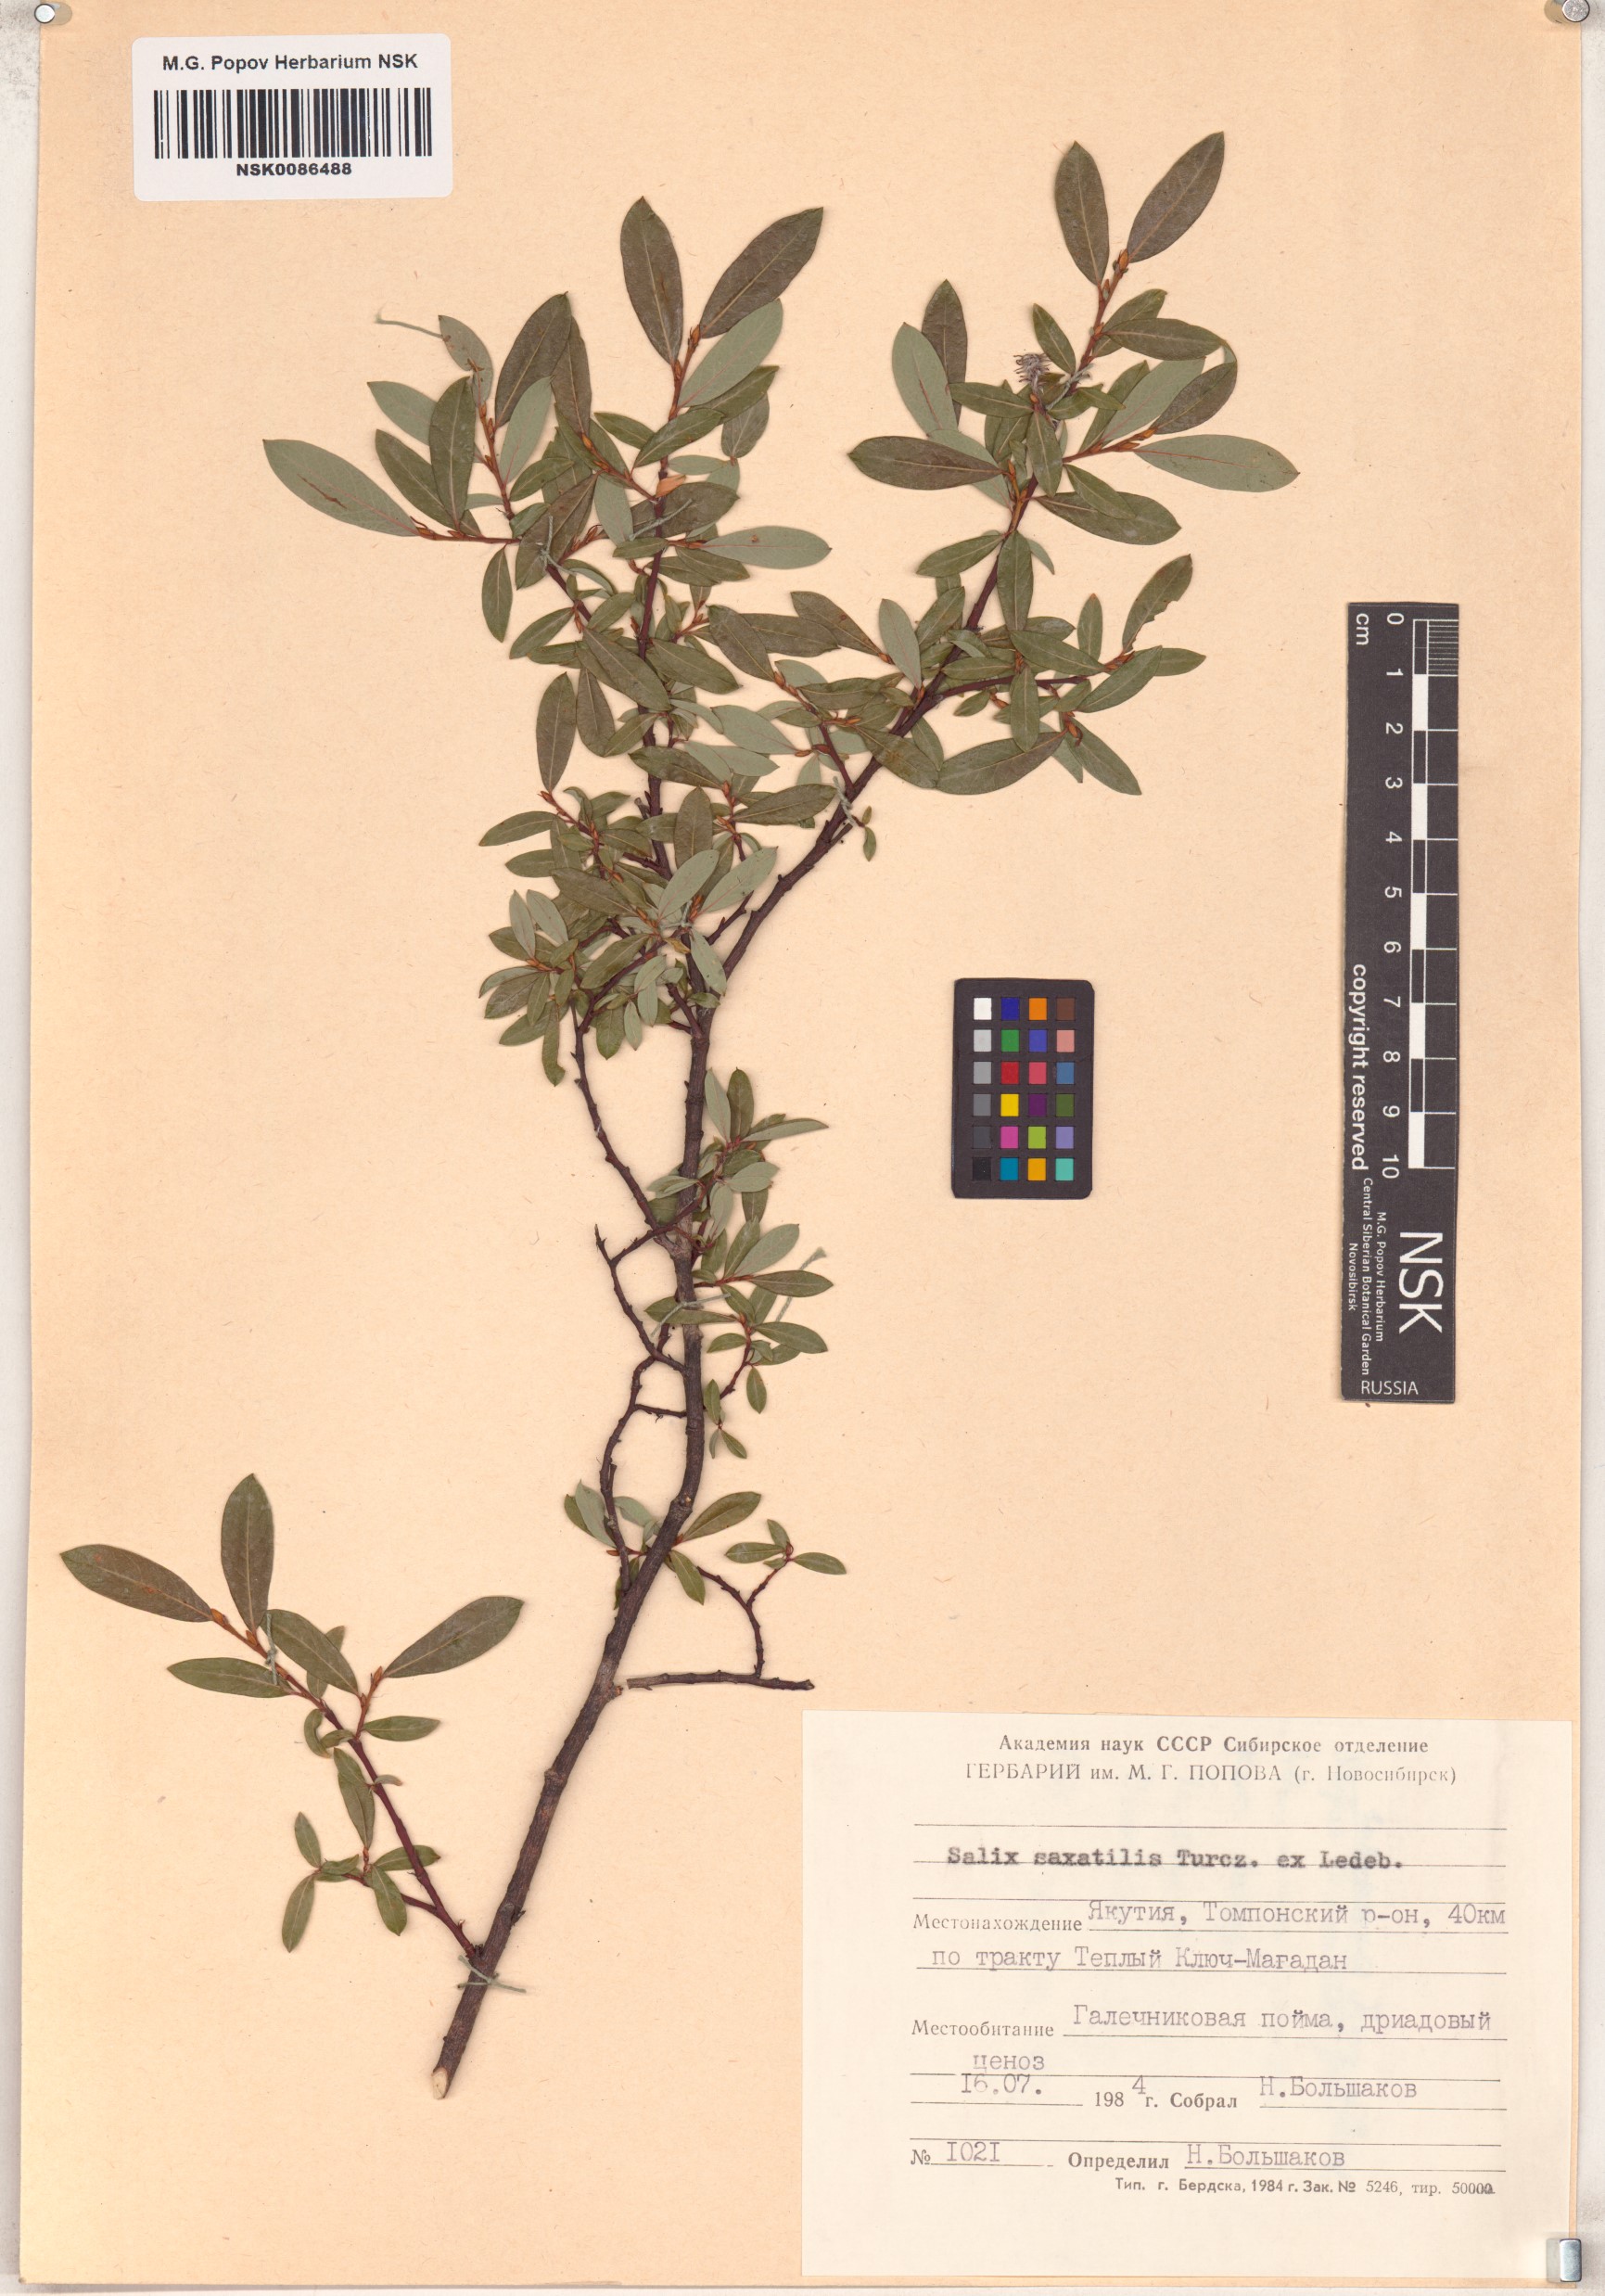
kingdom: Plantae
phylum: Tracheophyta
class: Magnoliopsida
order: Malpighiales
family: Salicaceae
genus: Salix
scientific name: Salix saxatilis
